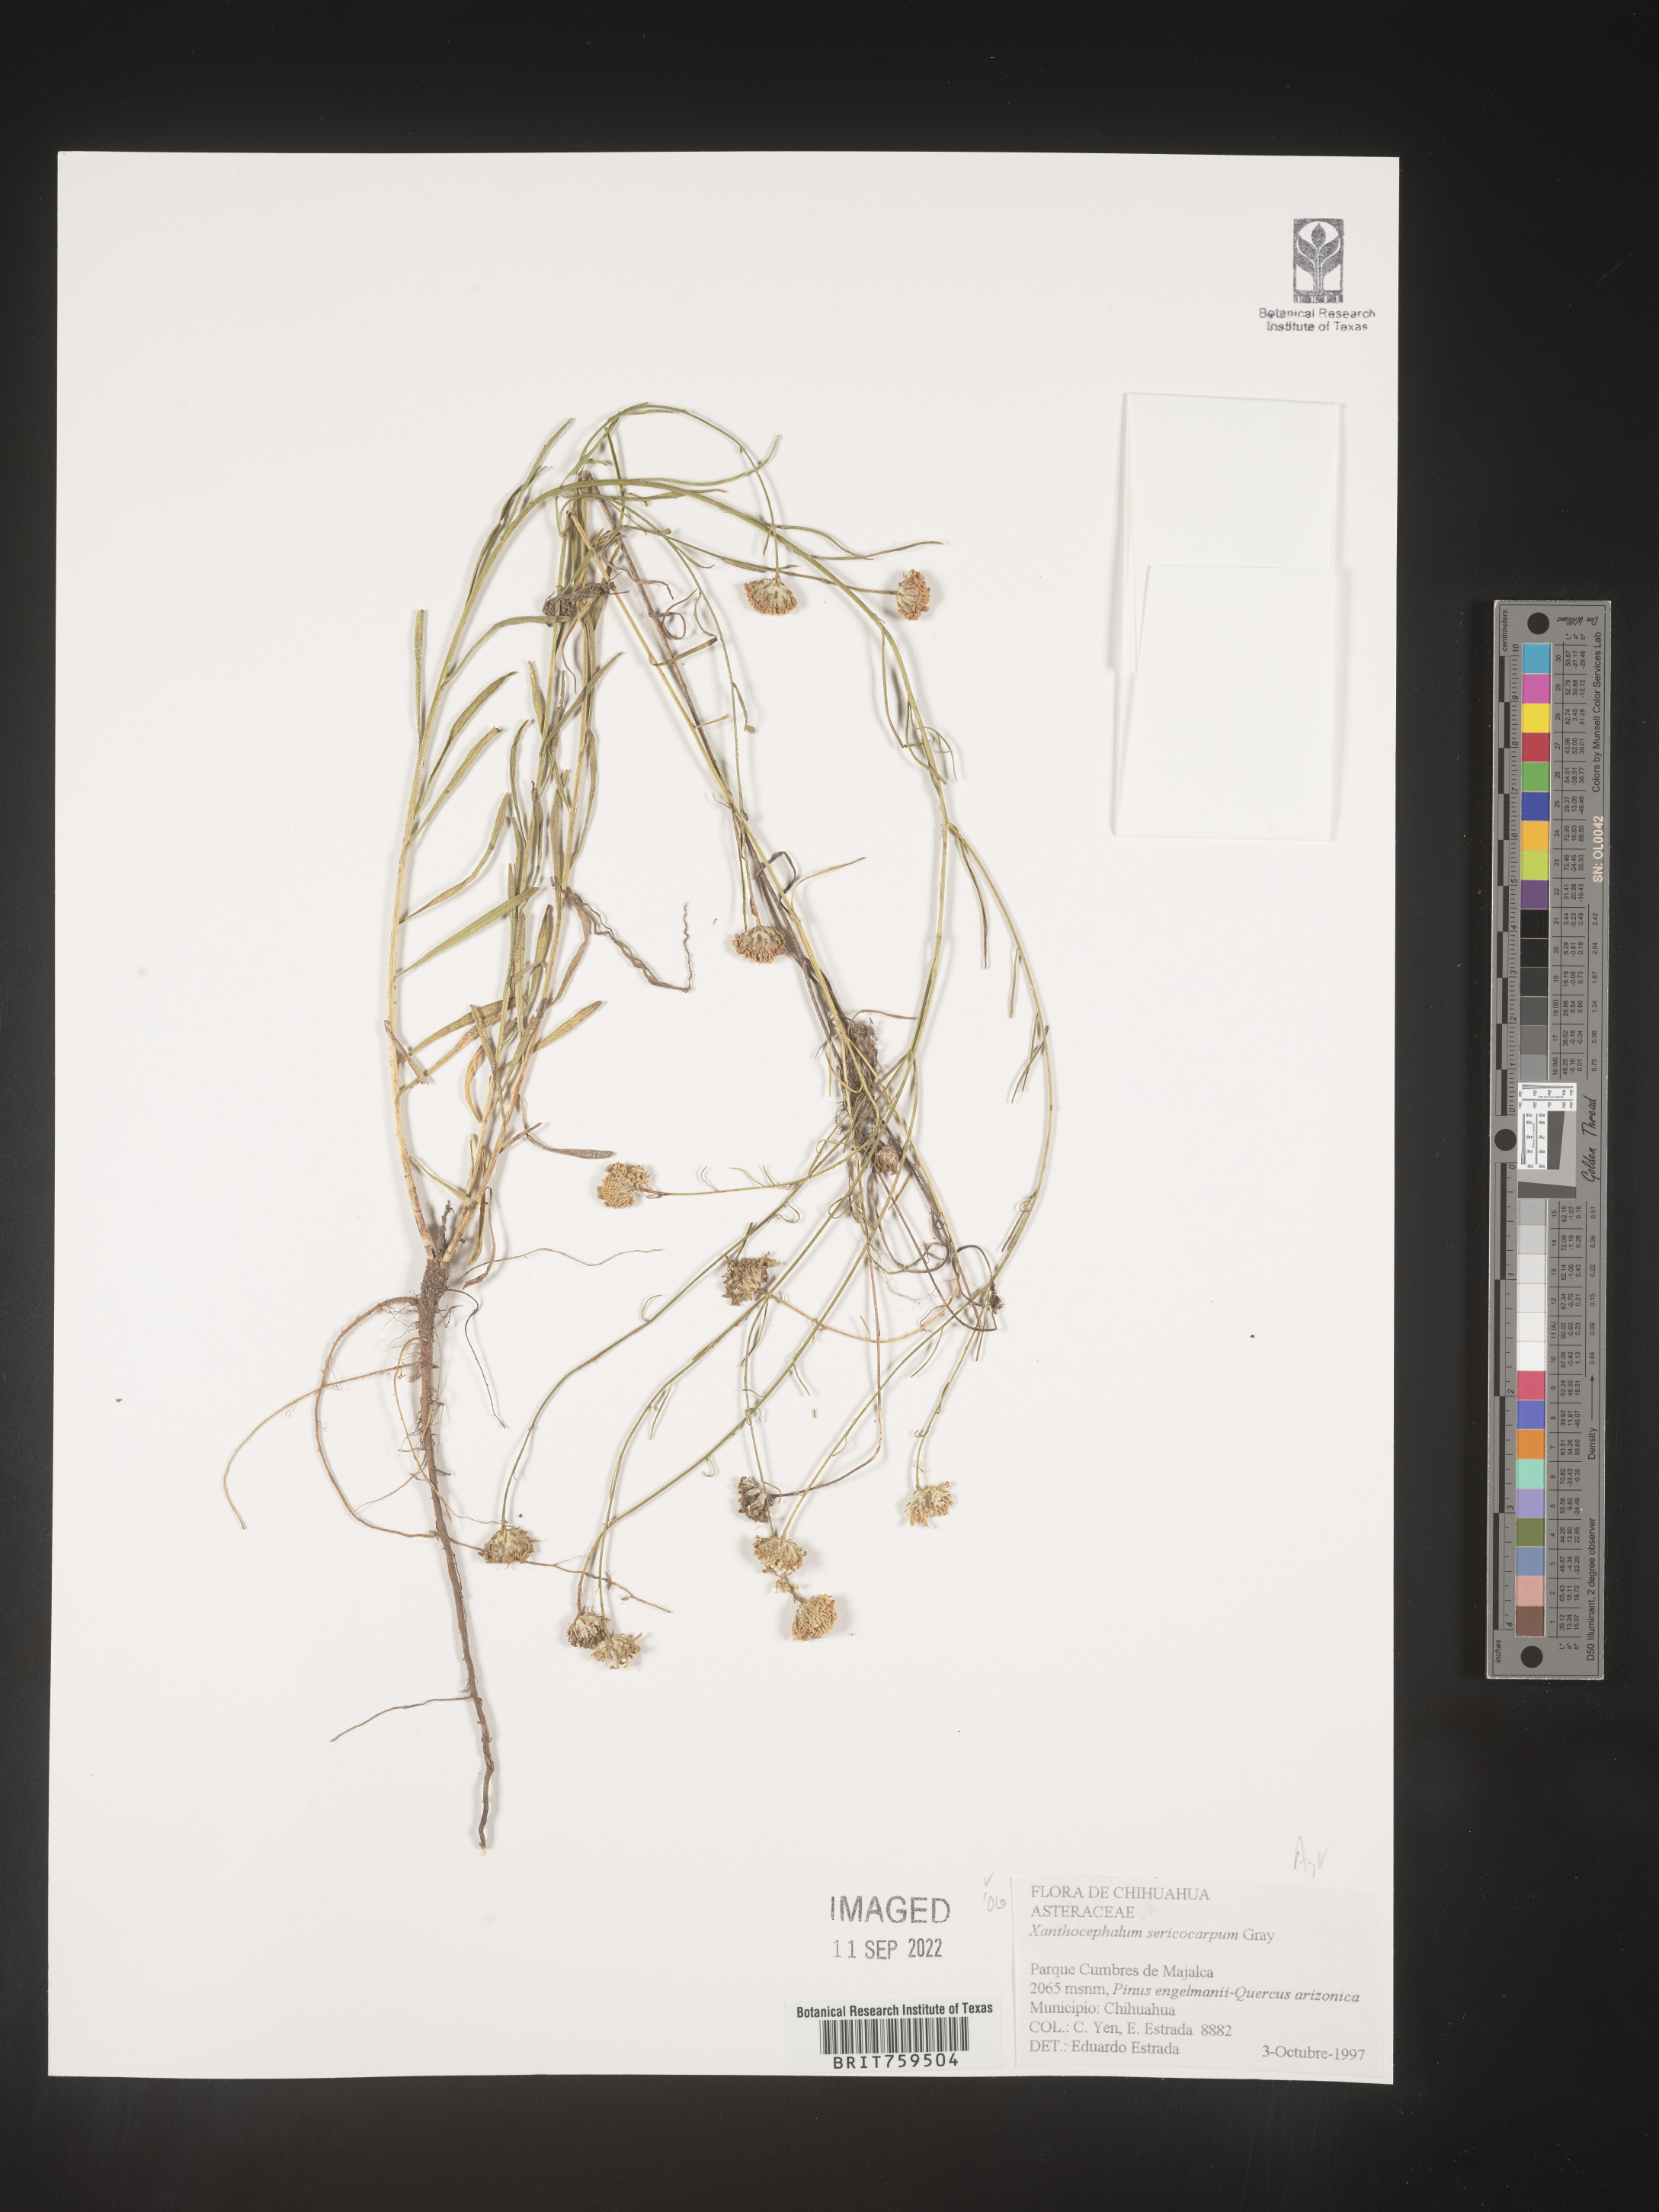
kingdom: Plantae
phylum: Tracheophyta
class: Magnoliopsida
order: Asterales
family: Asteraceae
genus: Xanthocephalum
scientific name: Xanthocephalum
